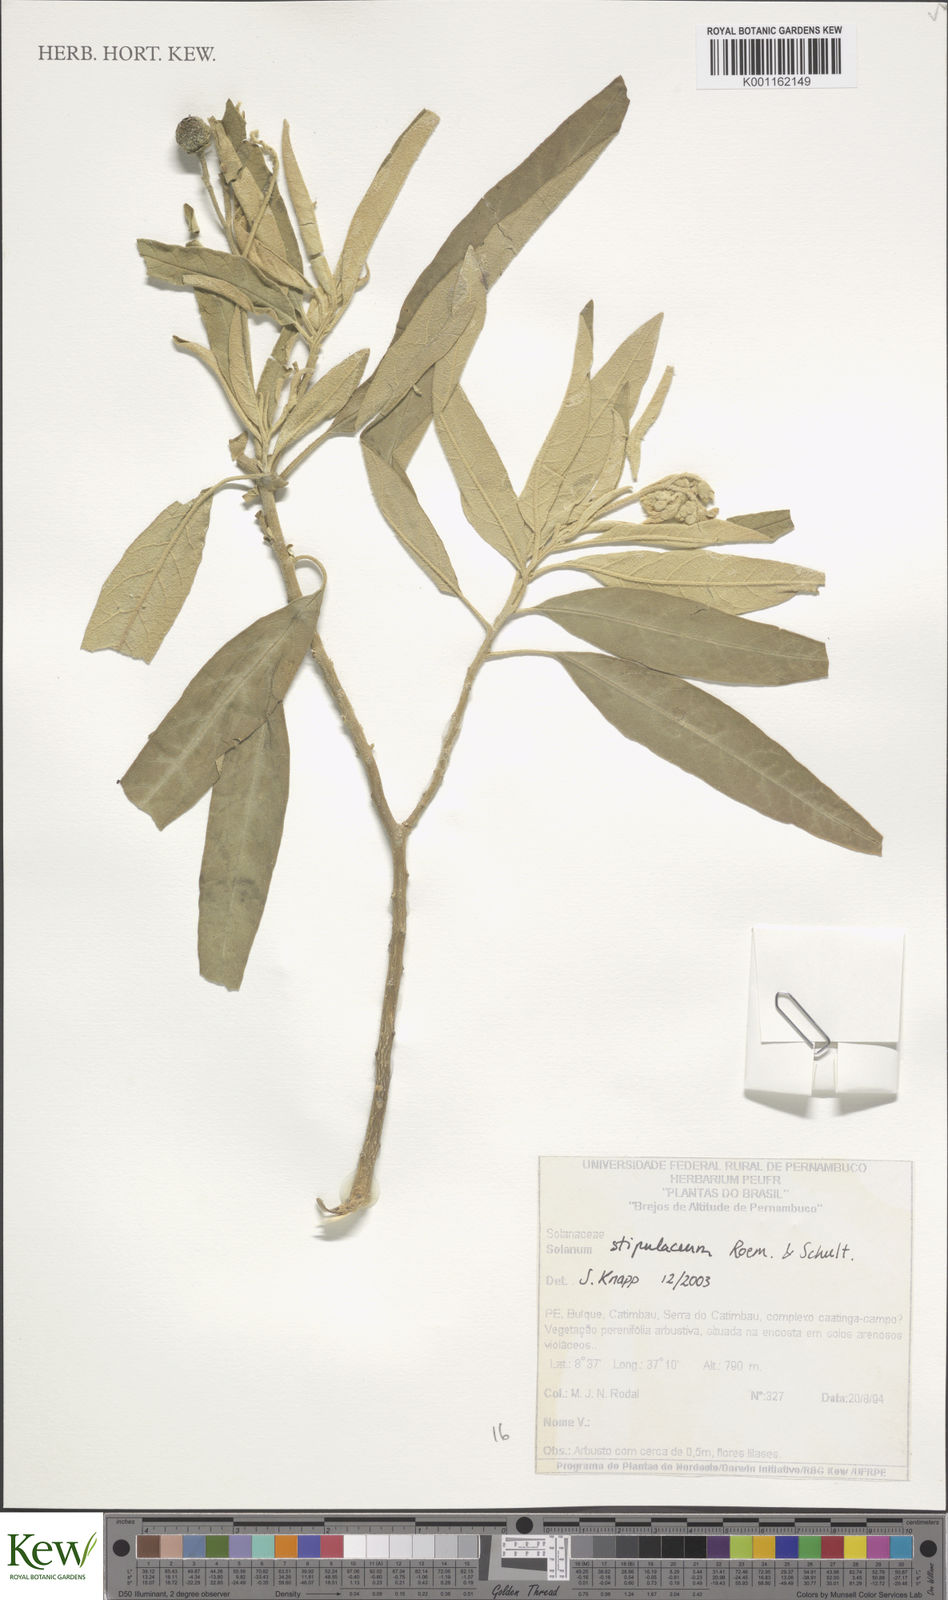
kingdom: Plantae
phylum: Tracheophyta
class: Magnoliopsida
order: Solanales
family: Solanaceae
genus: Solanum
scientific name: Solanum stipulaceum
